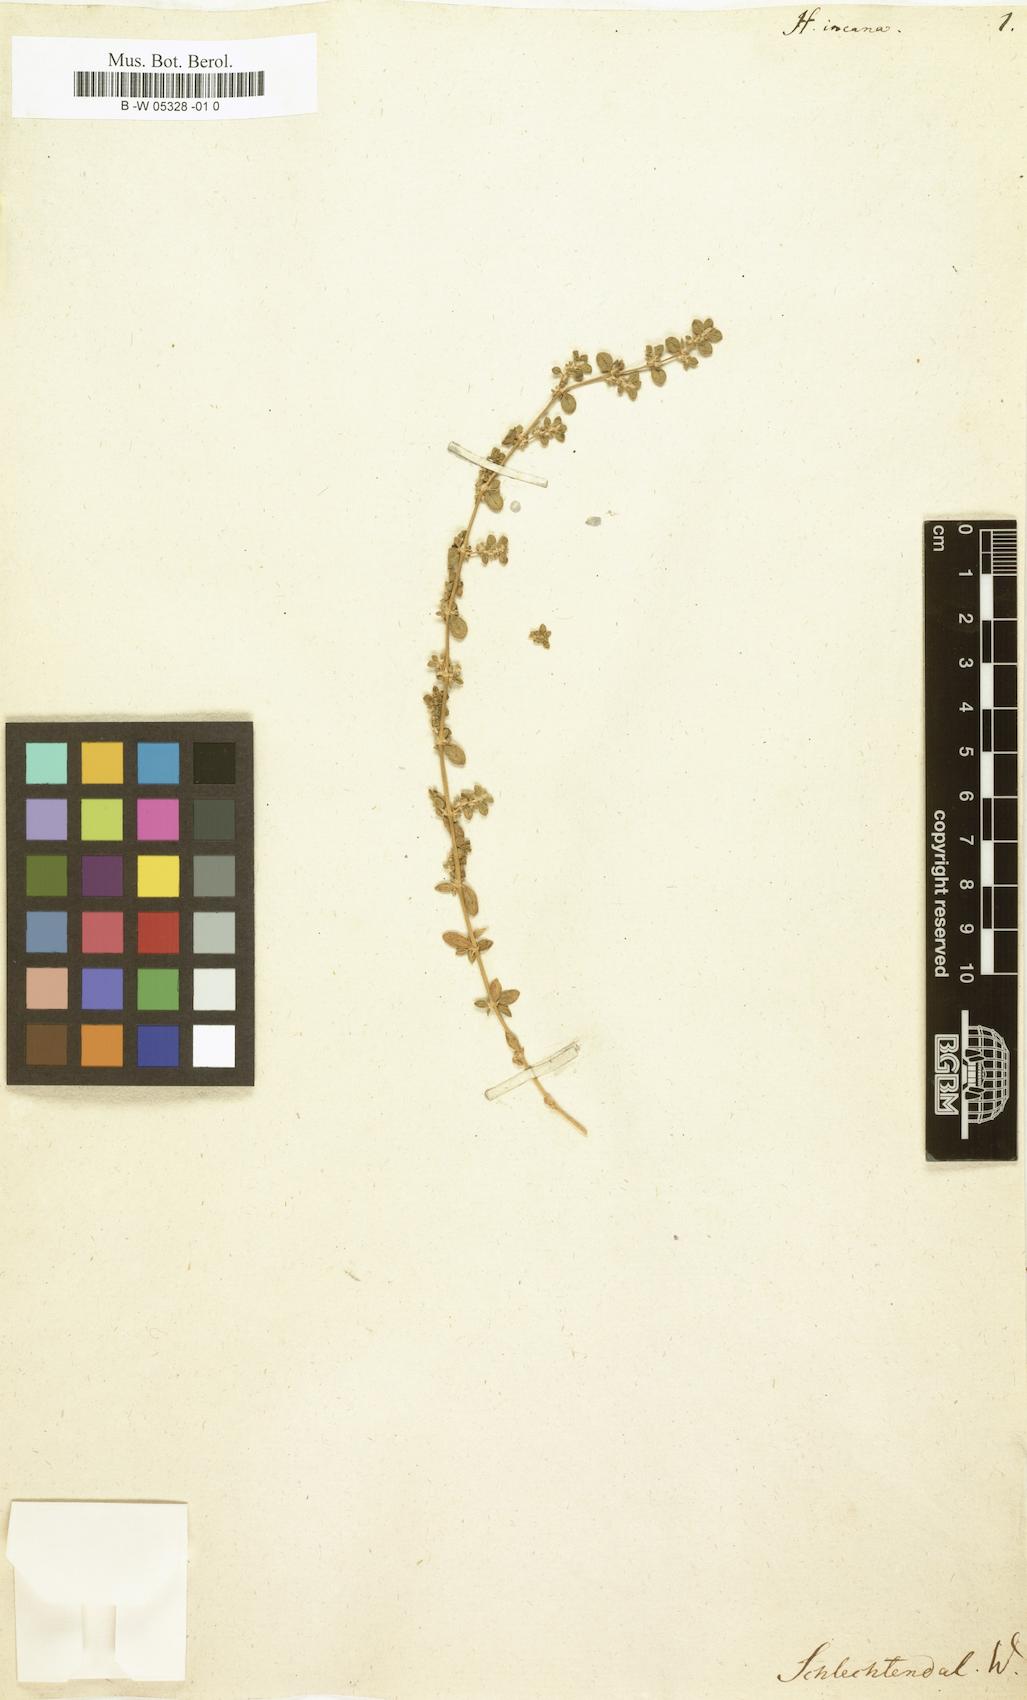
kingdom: Plantae
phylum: Tracheophyta
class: Magnoliopsida
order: Caryophyllales
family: Caryophyllaceae
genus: Herniaria
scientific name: Herniaria incana
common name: Gray rupturewort
